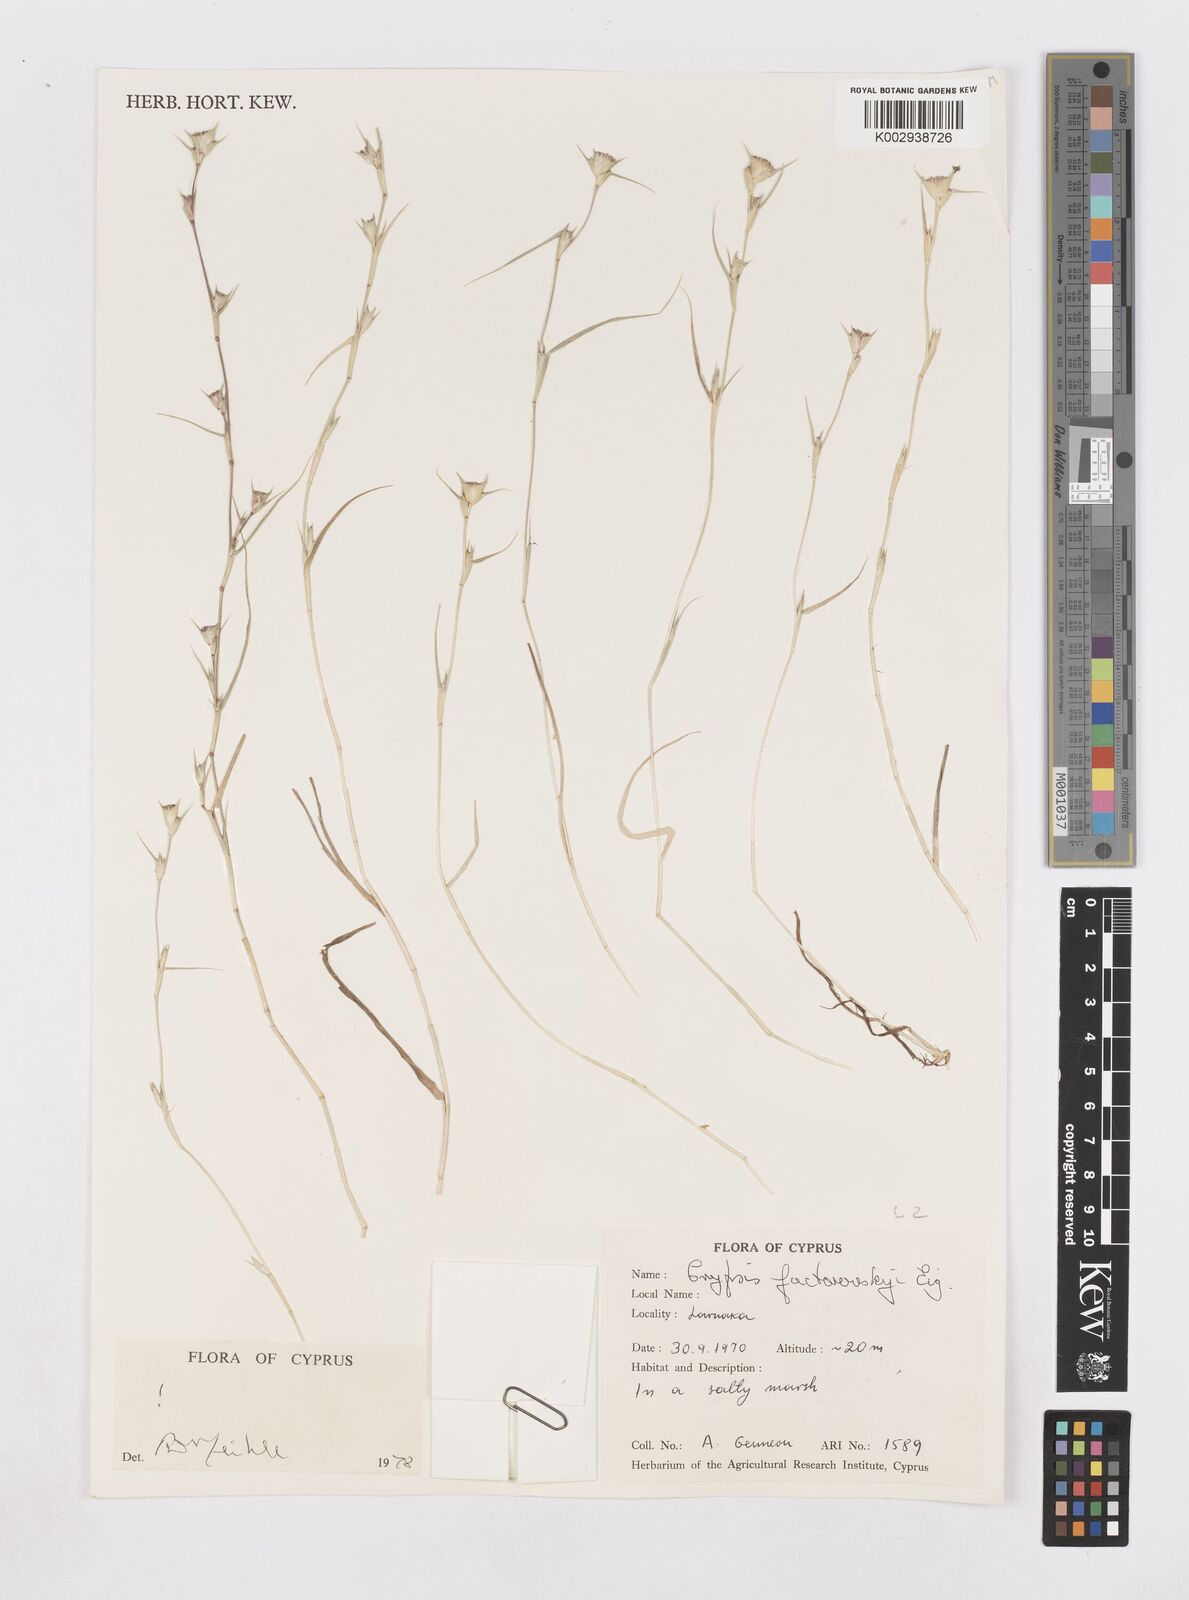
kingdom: Plantae
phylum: Tracheophyta
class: Liliopsida
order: Poales
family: Poaceae
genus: Sporobolus
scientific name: Sporobolus factorovskyi
